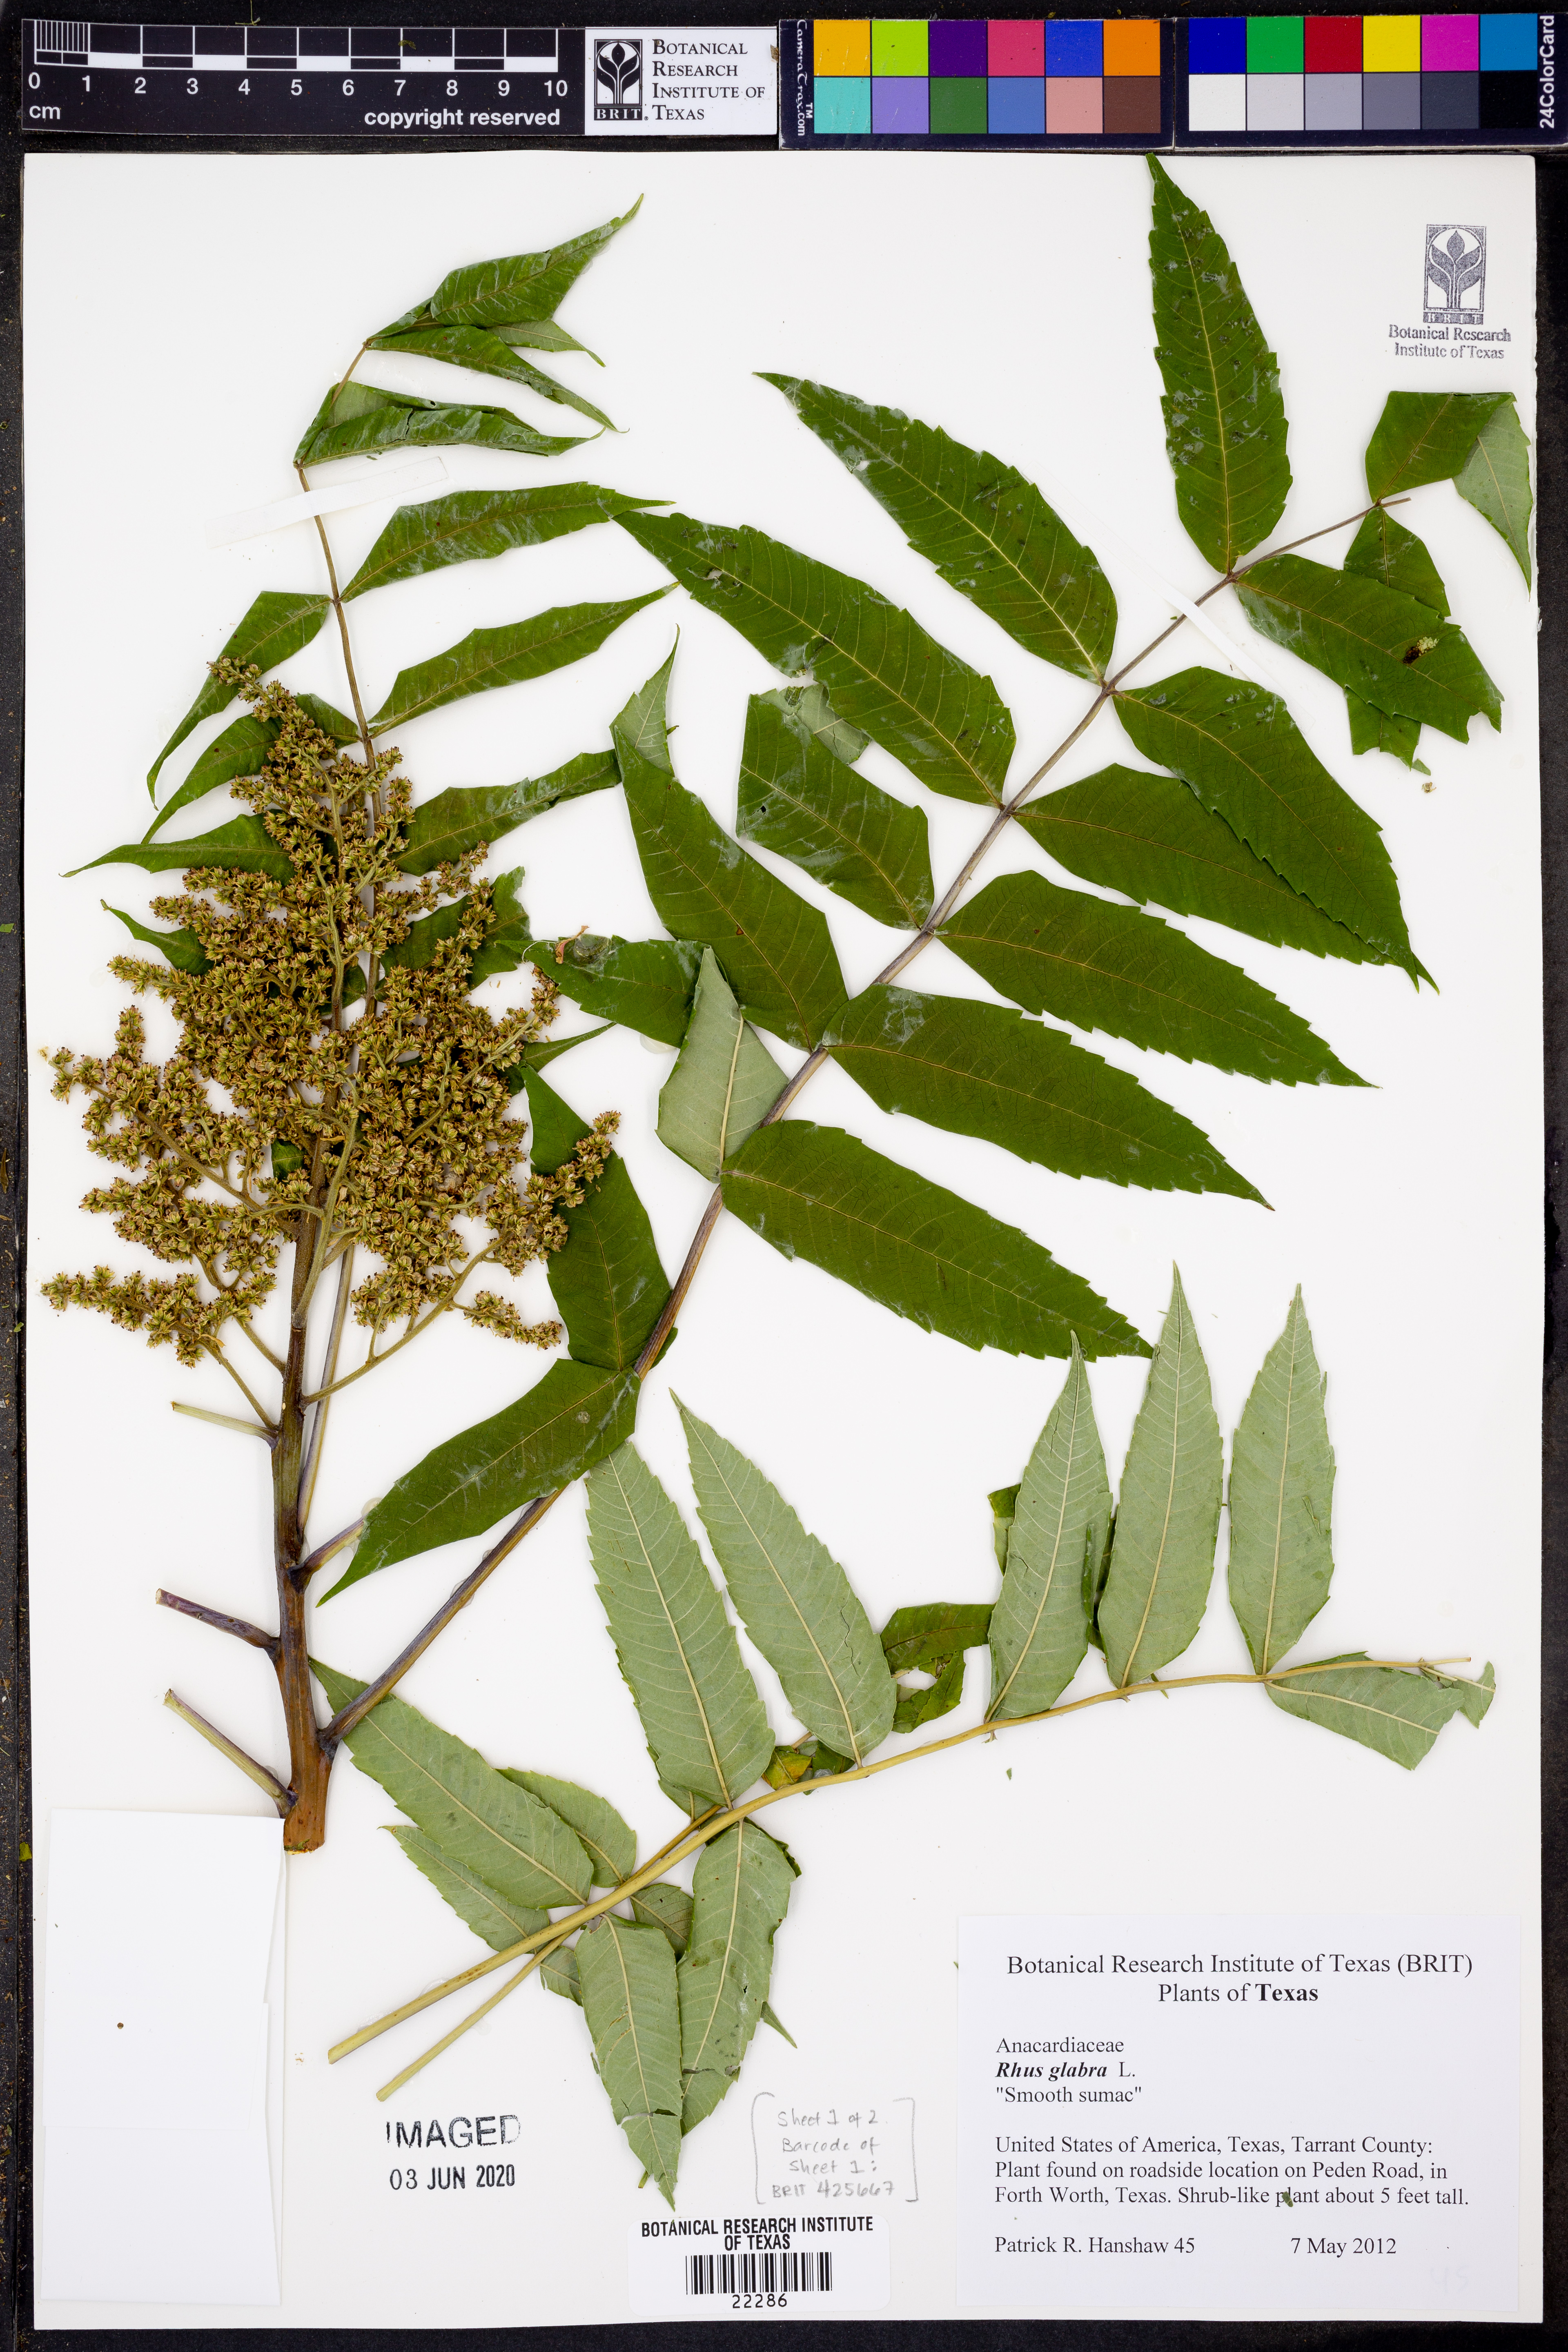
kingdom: Plantae
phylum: Tracheophyta
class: Magnoliopsida
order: Sapindales
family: Anacardiaceae
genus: Rhus
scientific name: Rhus glabra
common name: Scarlet sumac
